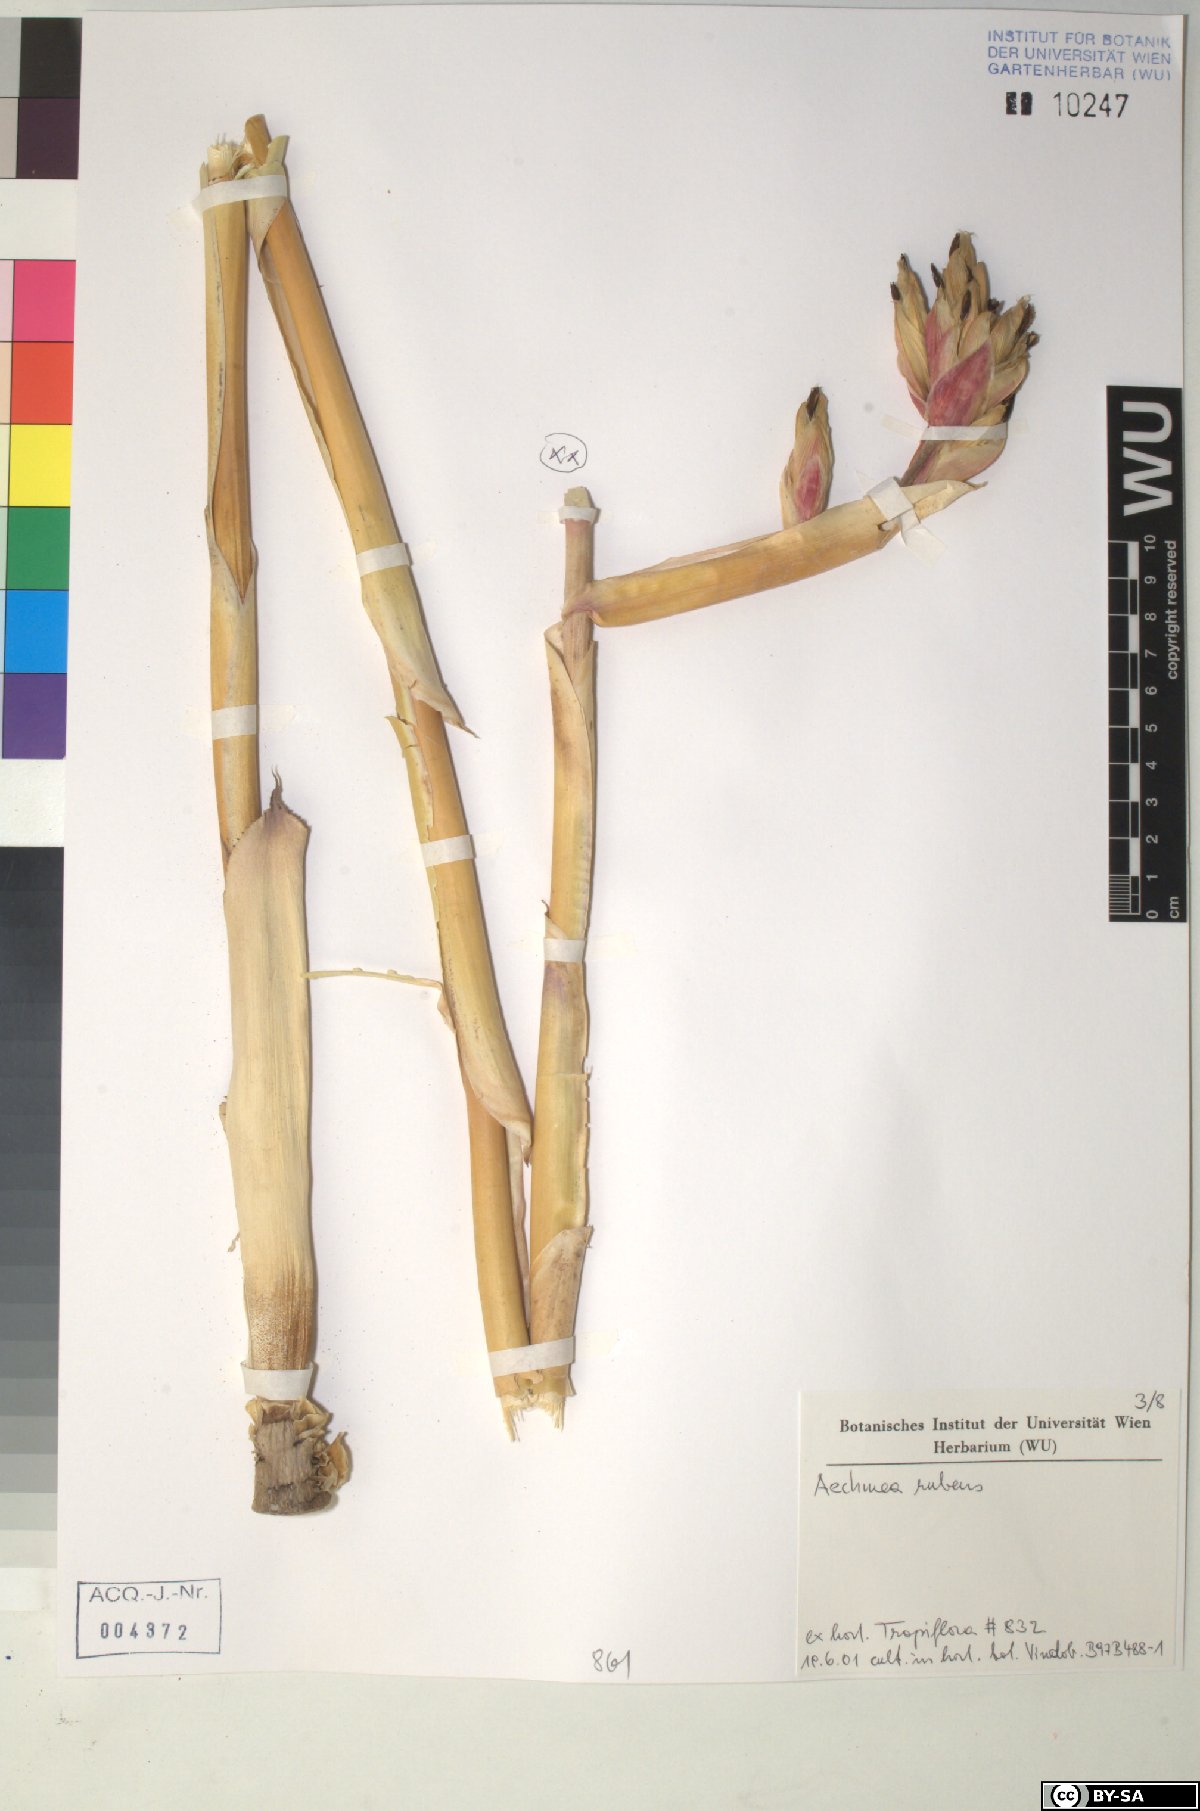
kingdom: Plantae
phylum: Tracheophyta
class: Liliopsida
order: Poales
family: Bromeliaceae
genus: Aechmea
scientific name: Aechmea rubens
